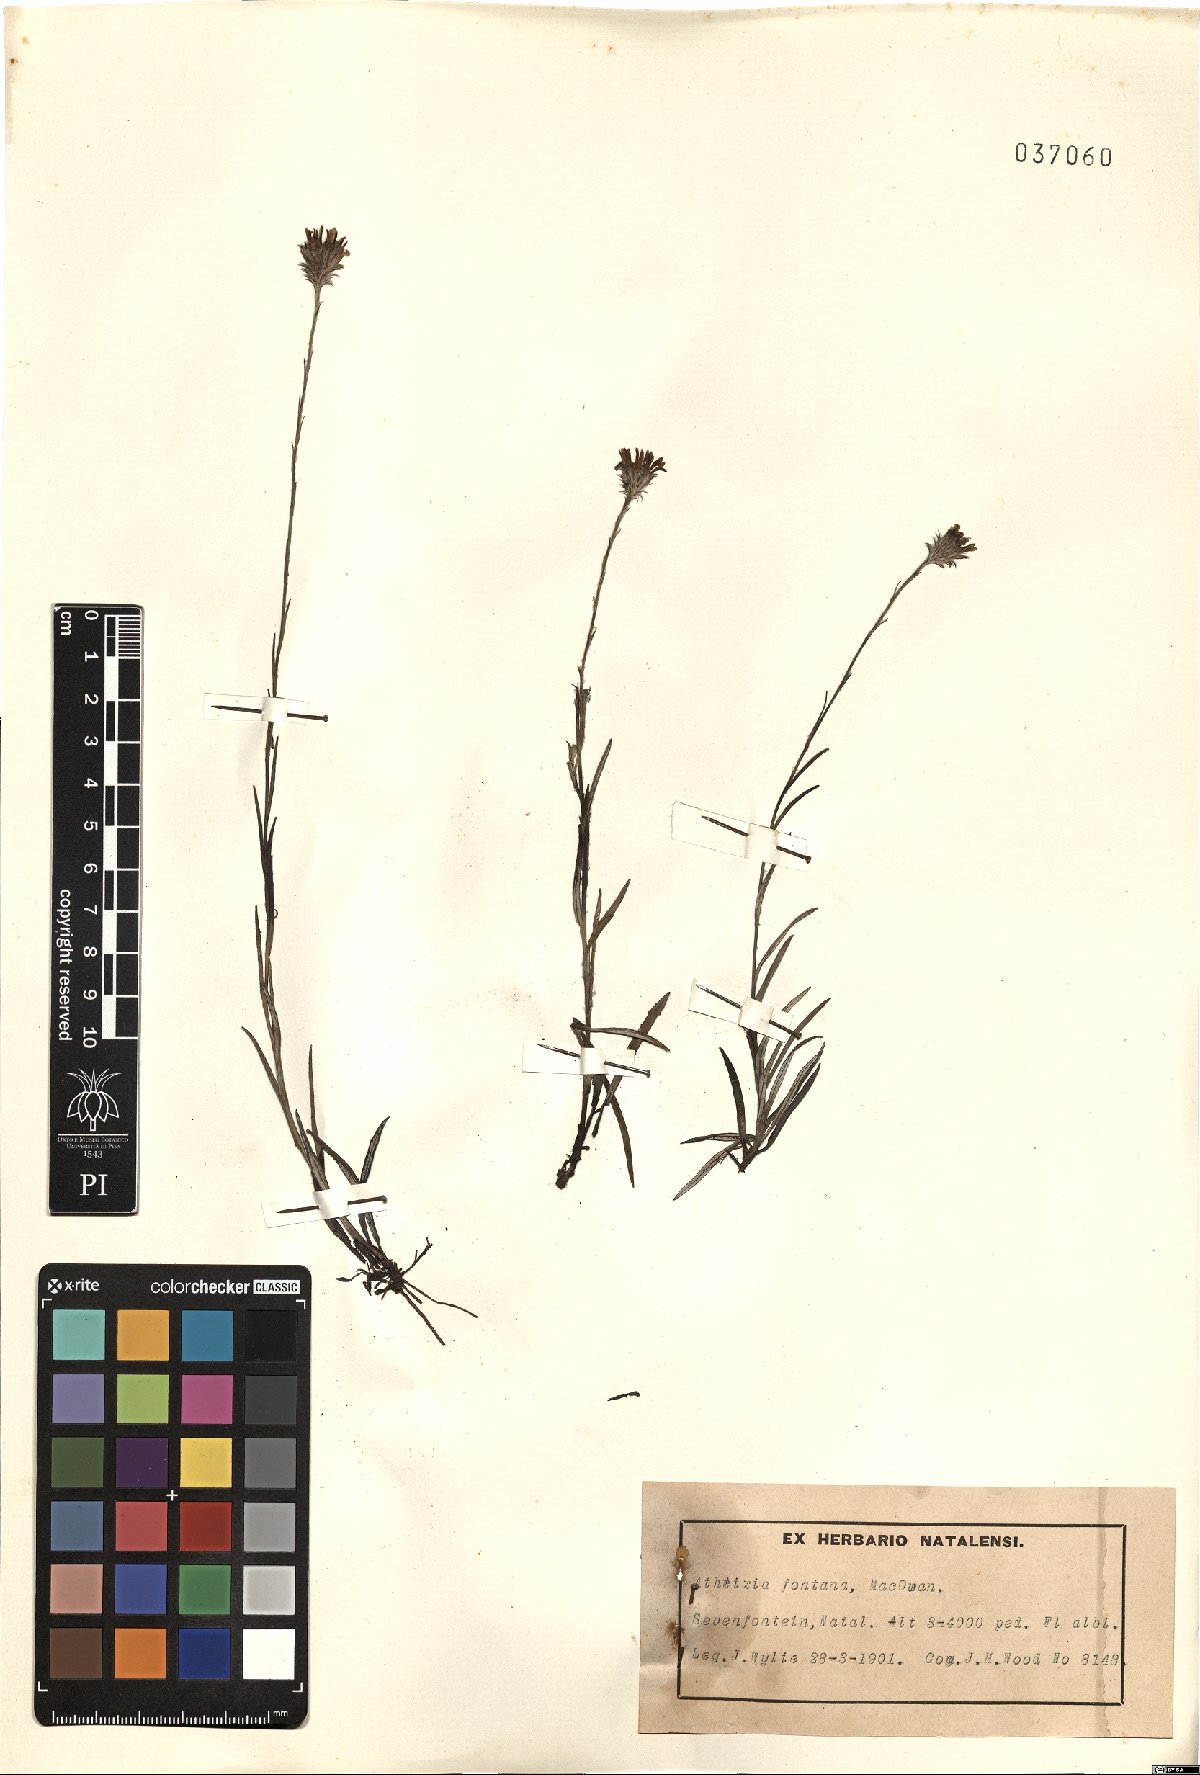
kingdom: Plantae
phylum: Tracheophyta
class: Magnoliopsida
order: Asterales
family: Asteraceae
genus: Athrixia
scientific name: Athrixia fontana
